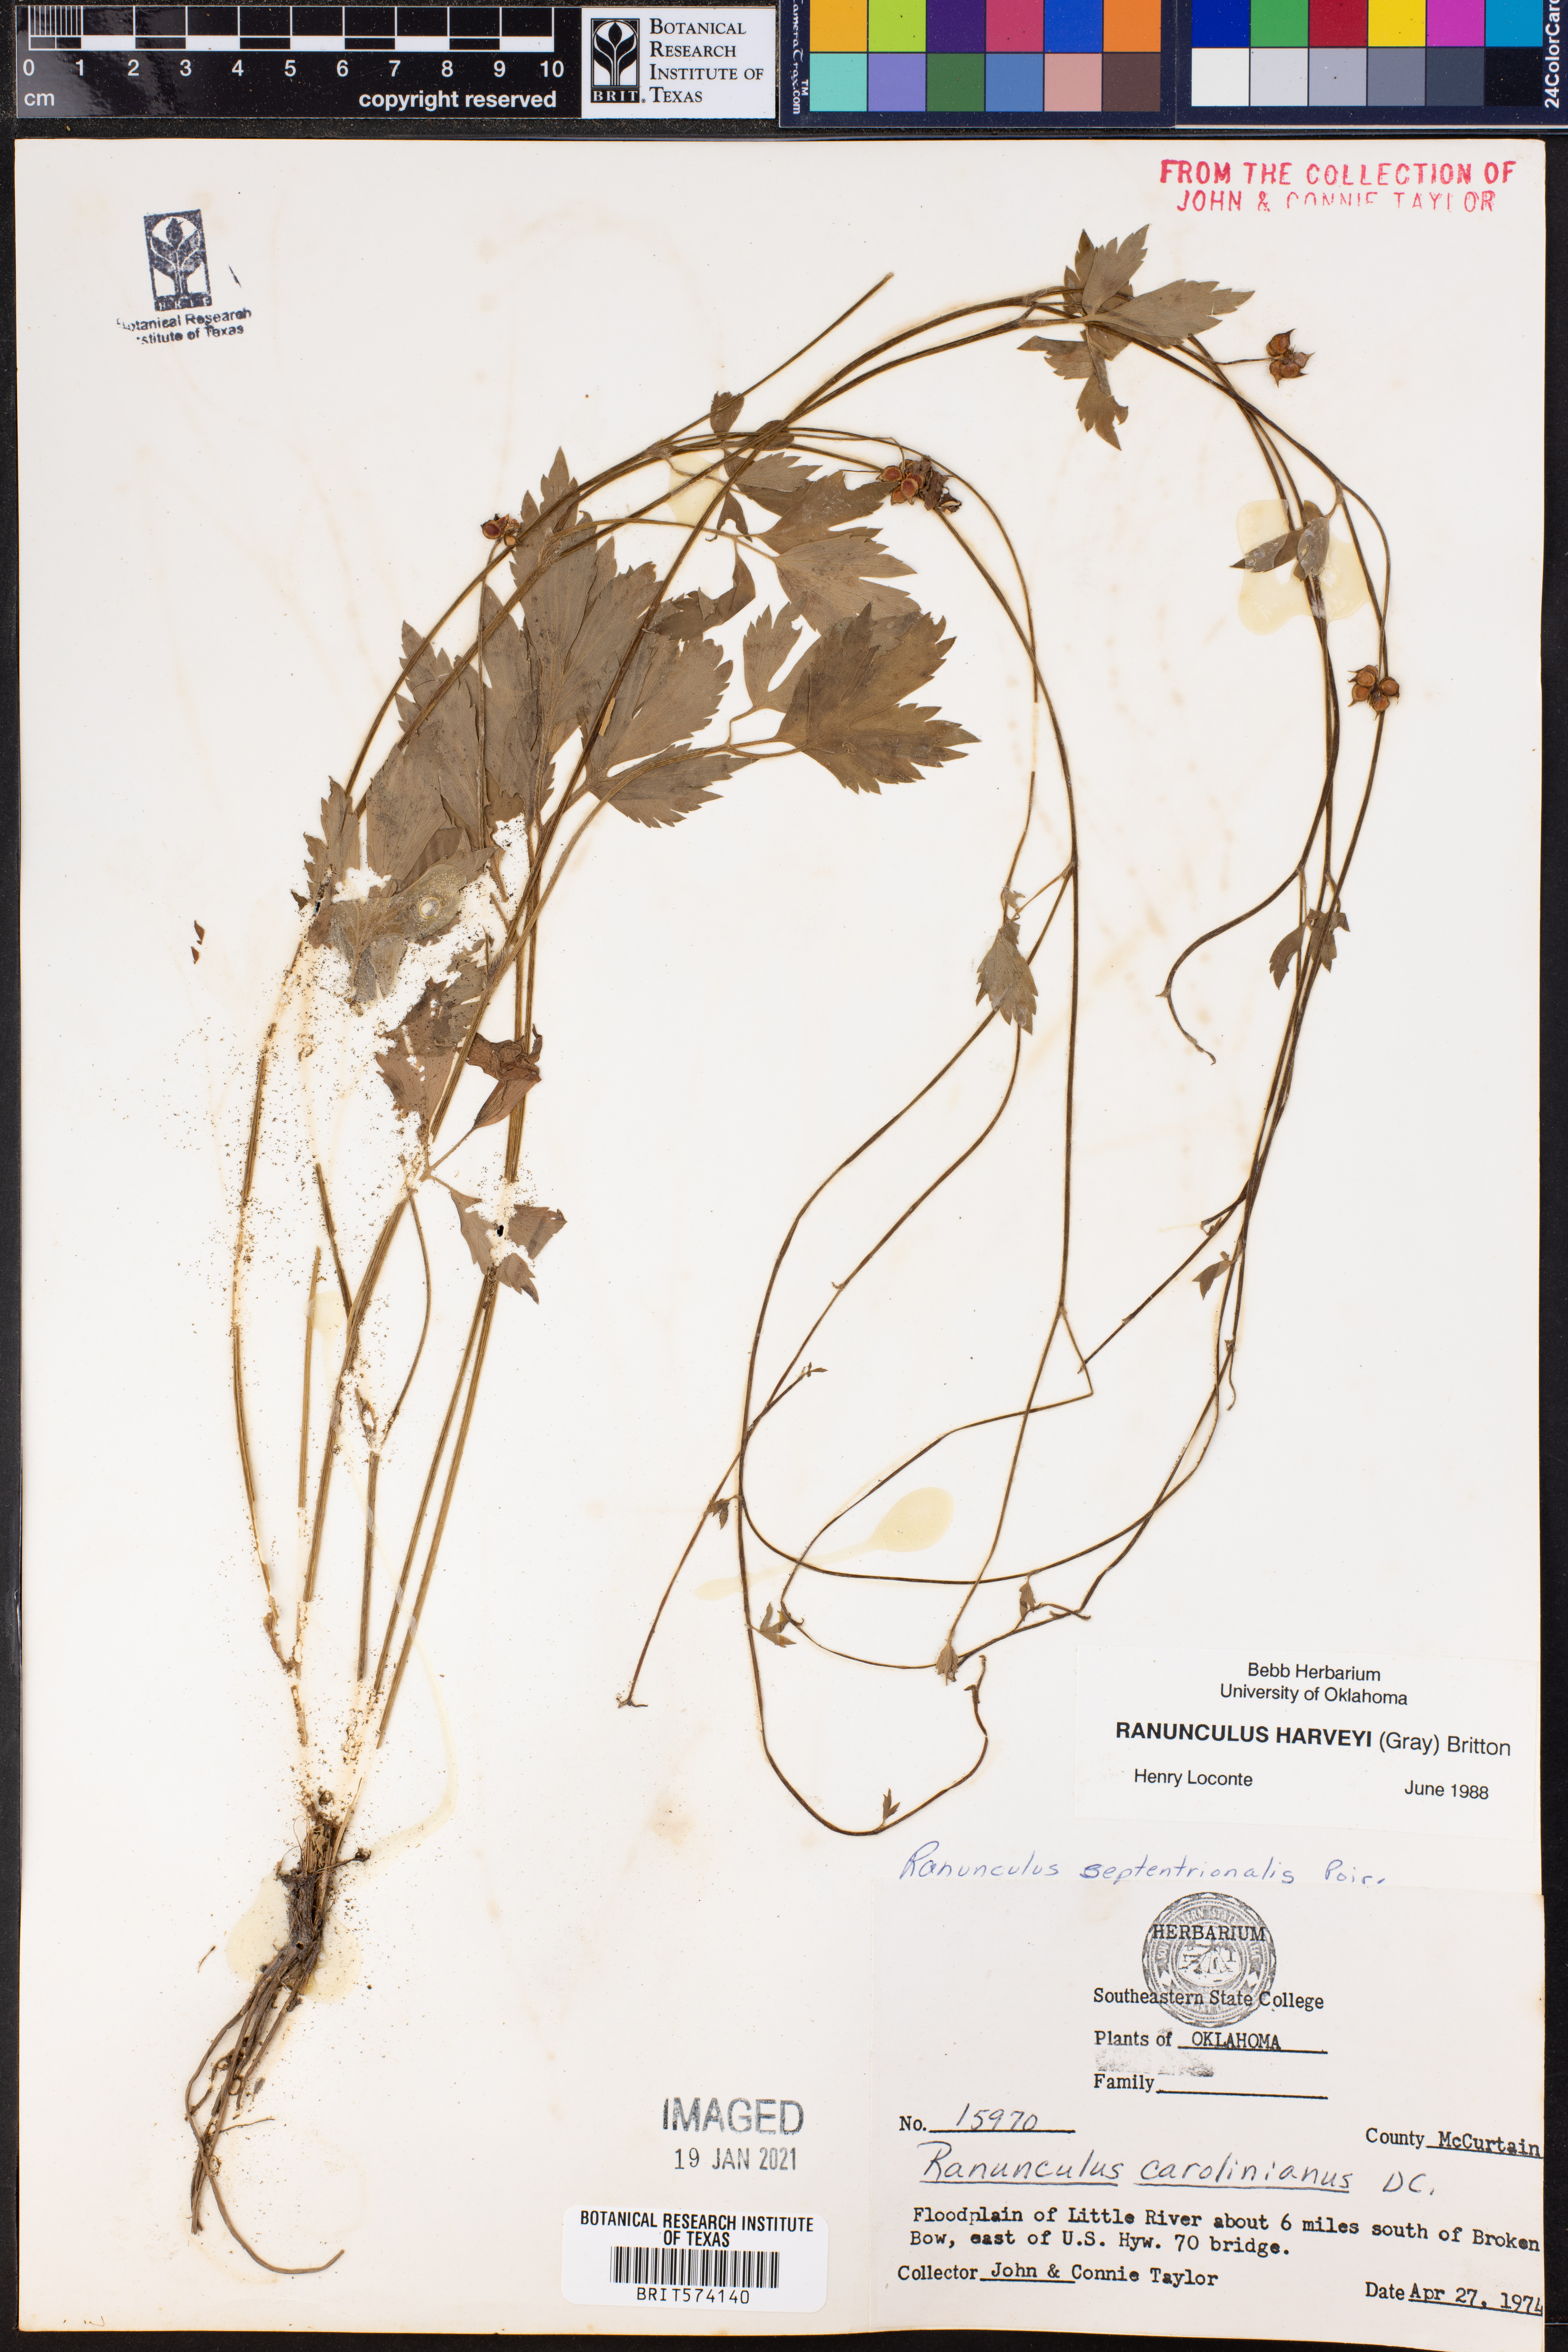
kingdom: Plantae
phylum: Tracheophyta
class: Magnoliopsida
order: Ranunculales
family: Ranunculaceae
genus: Ranunculus
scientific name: Ranunculus harveyi
